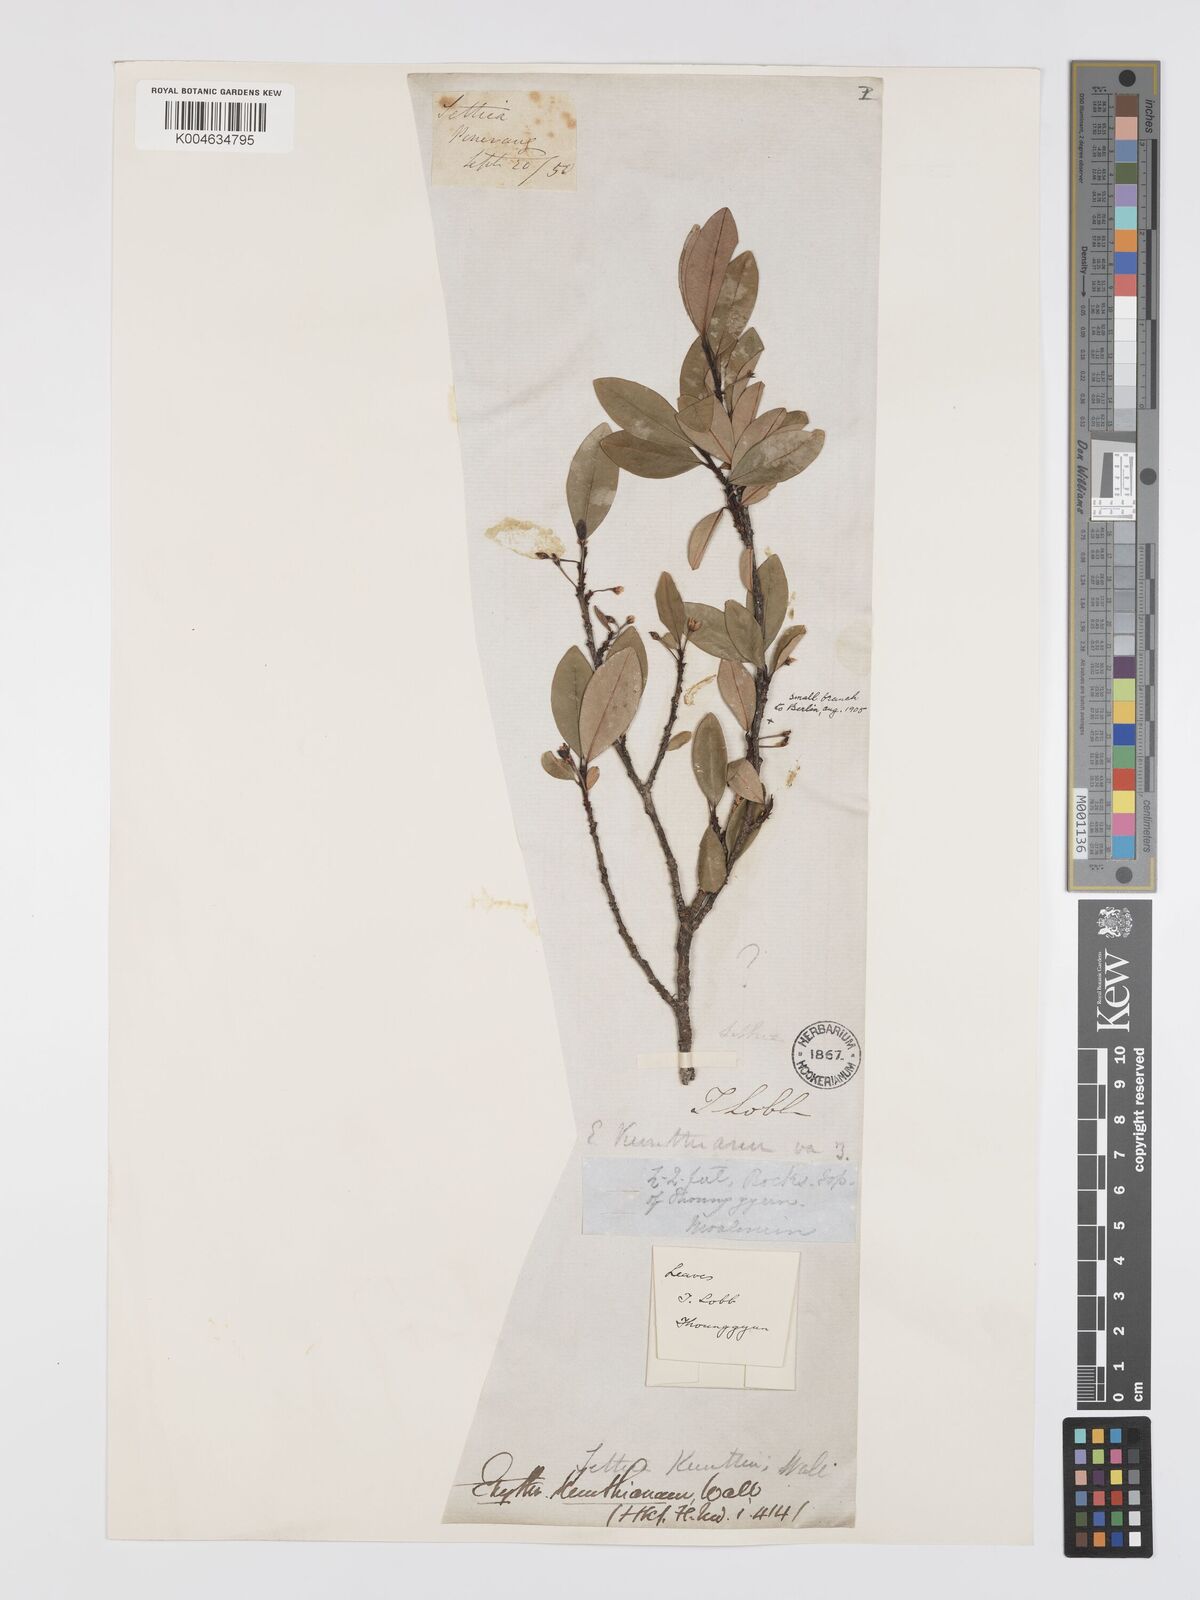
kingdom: Plantae
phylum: Tracheophyta
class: Magnoliopsida
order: Malpighiales
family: Erythroxylaceae
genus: Erythroxylum
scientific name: Erythroxylum
